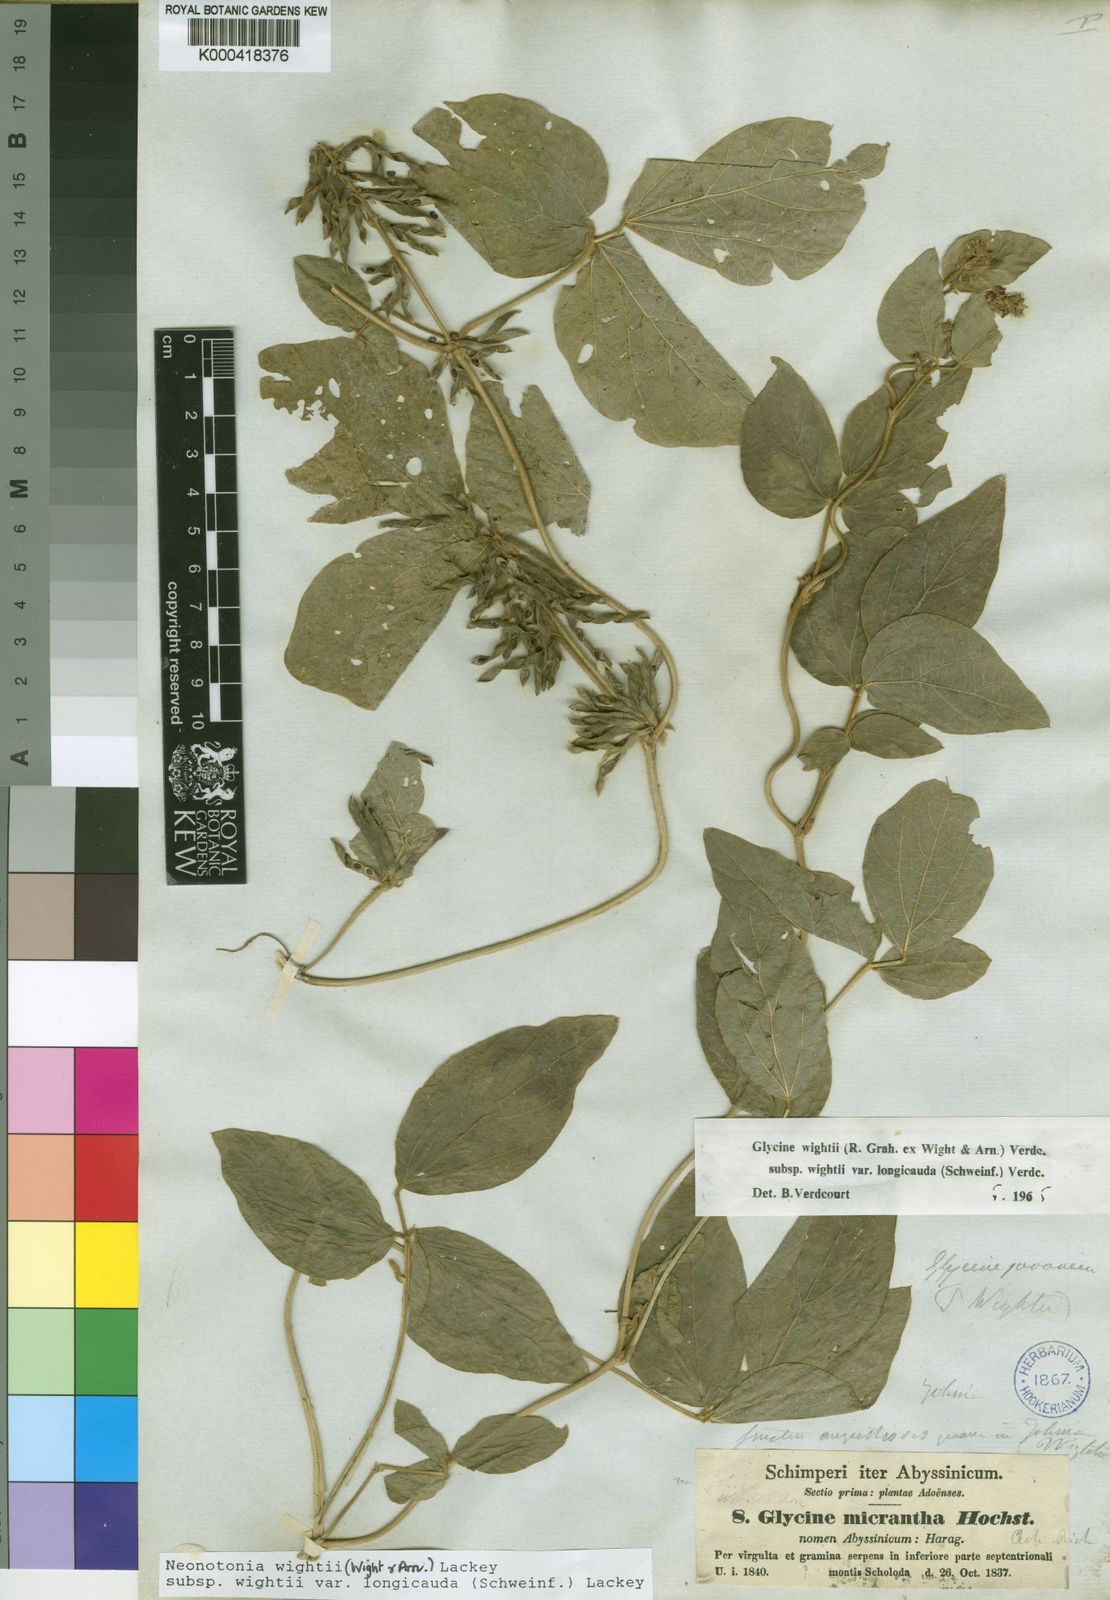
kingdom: Plantae
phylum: Tracheophyta
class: Magnoliopsida
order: Fabales
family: Fabaceae
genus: Neonotonia
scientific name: Neonotonia wightii
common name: Perennial soybean
